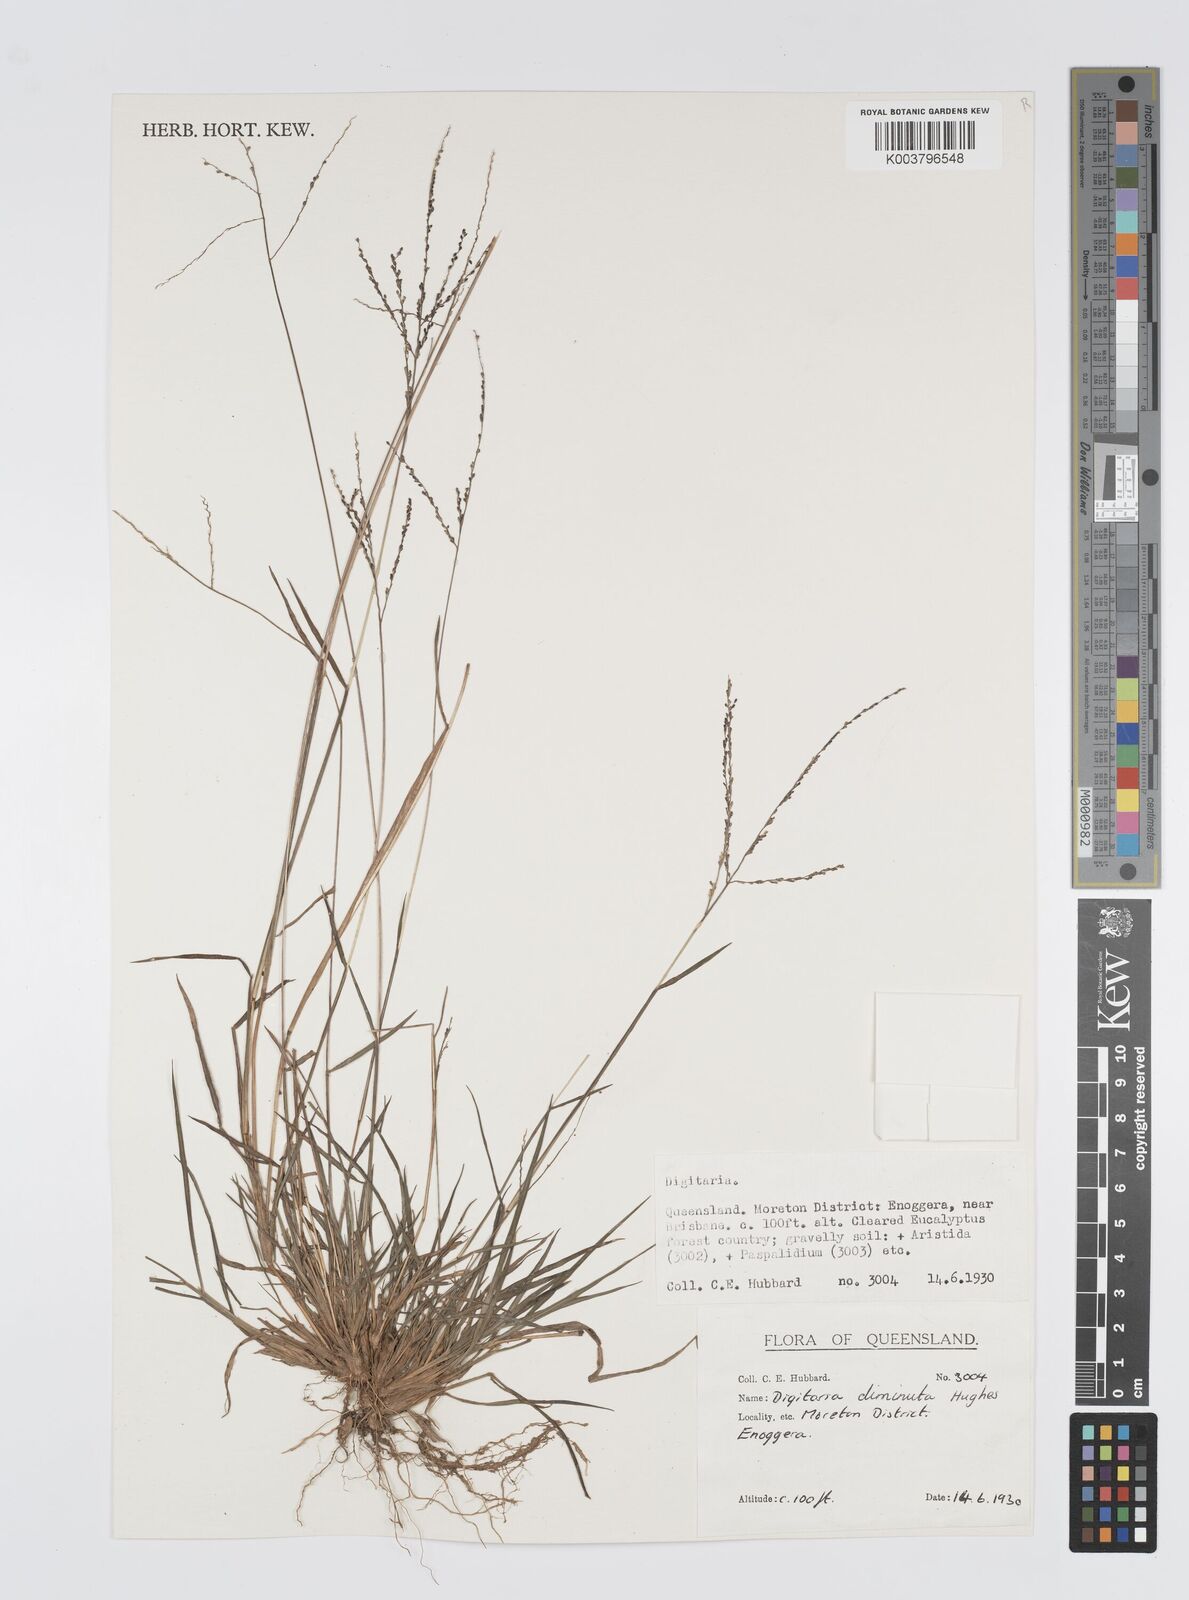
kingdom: Plantae
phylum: Tracheophyta
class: Liliopsida
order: Poales
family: Poaceae
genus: Digitaria
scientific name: Digitaria breviglumis
